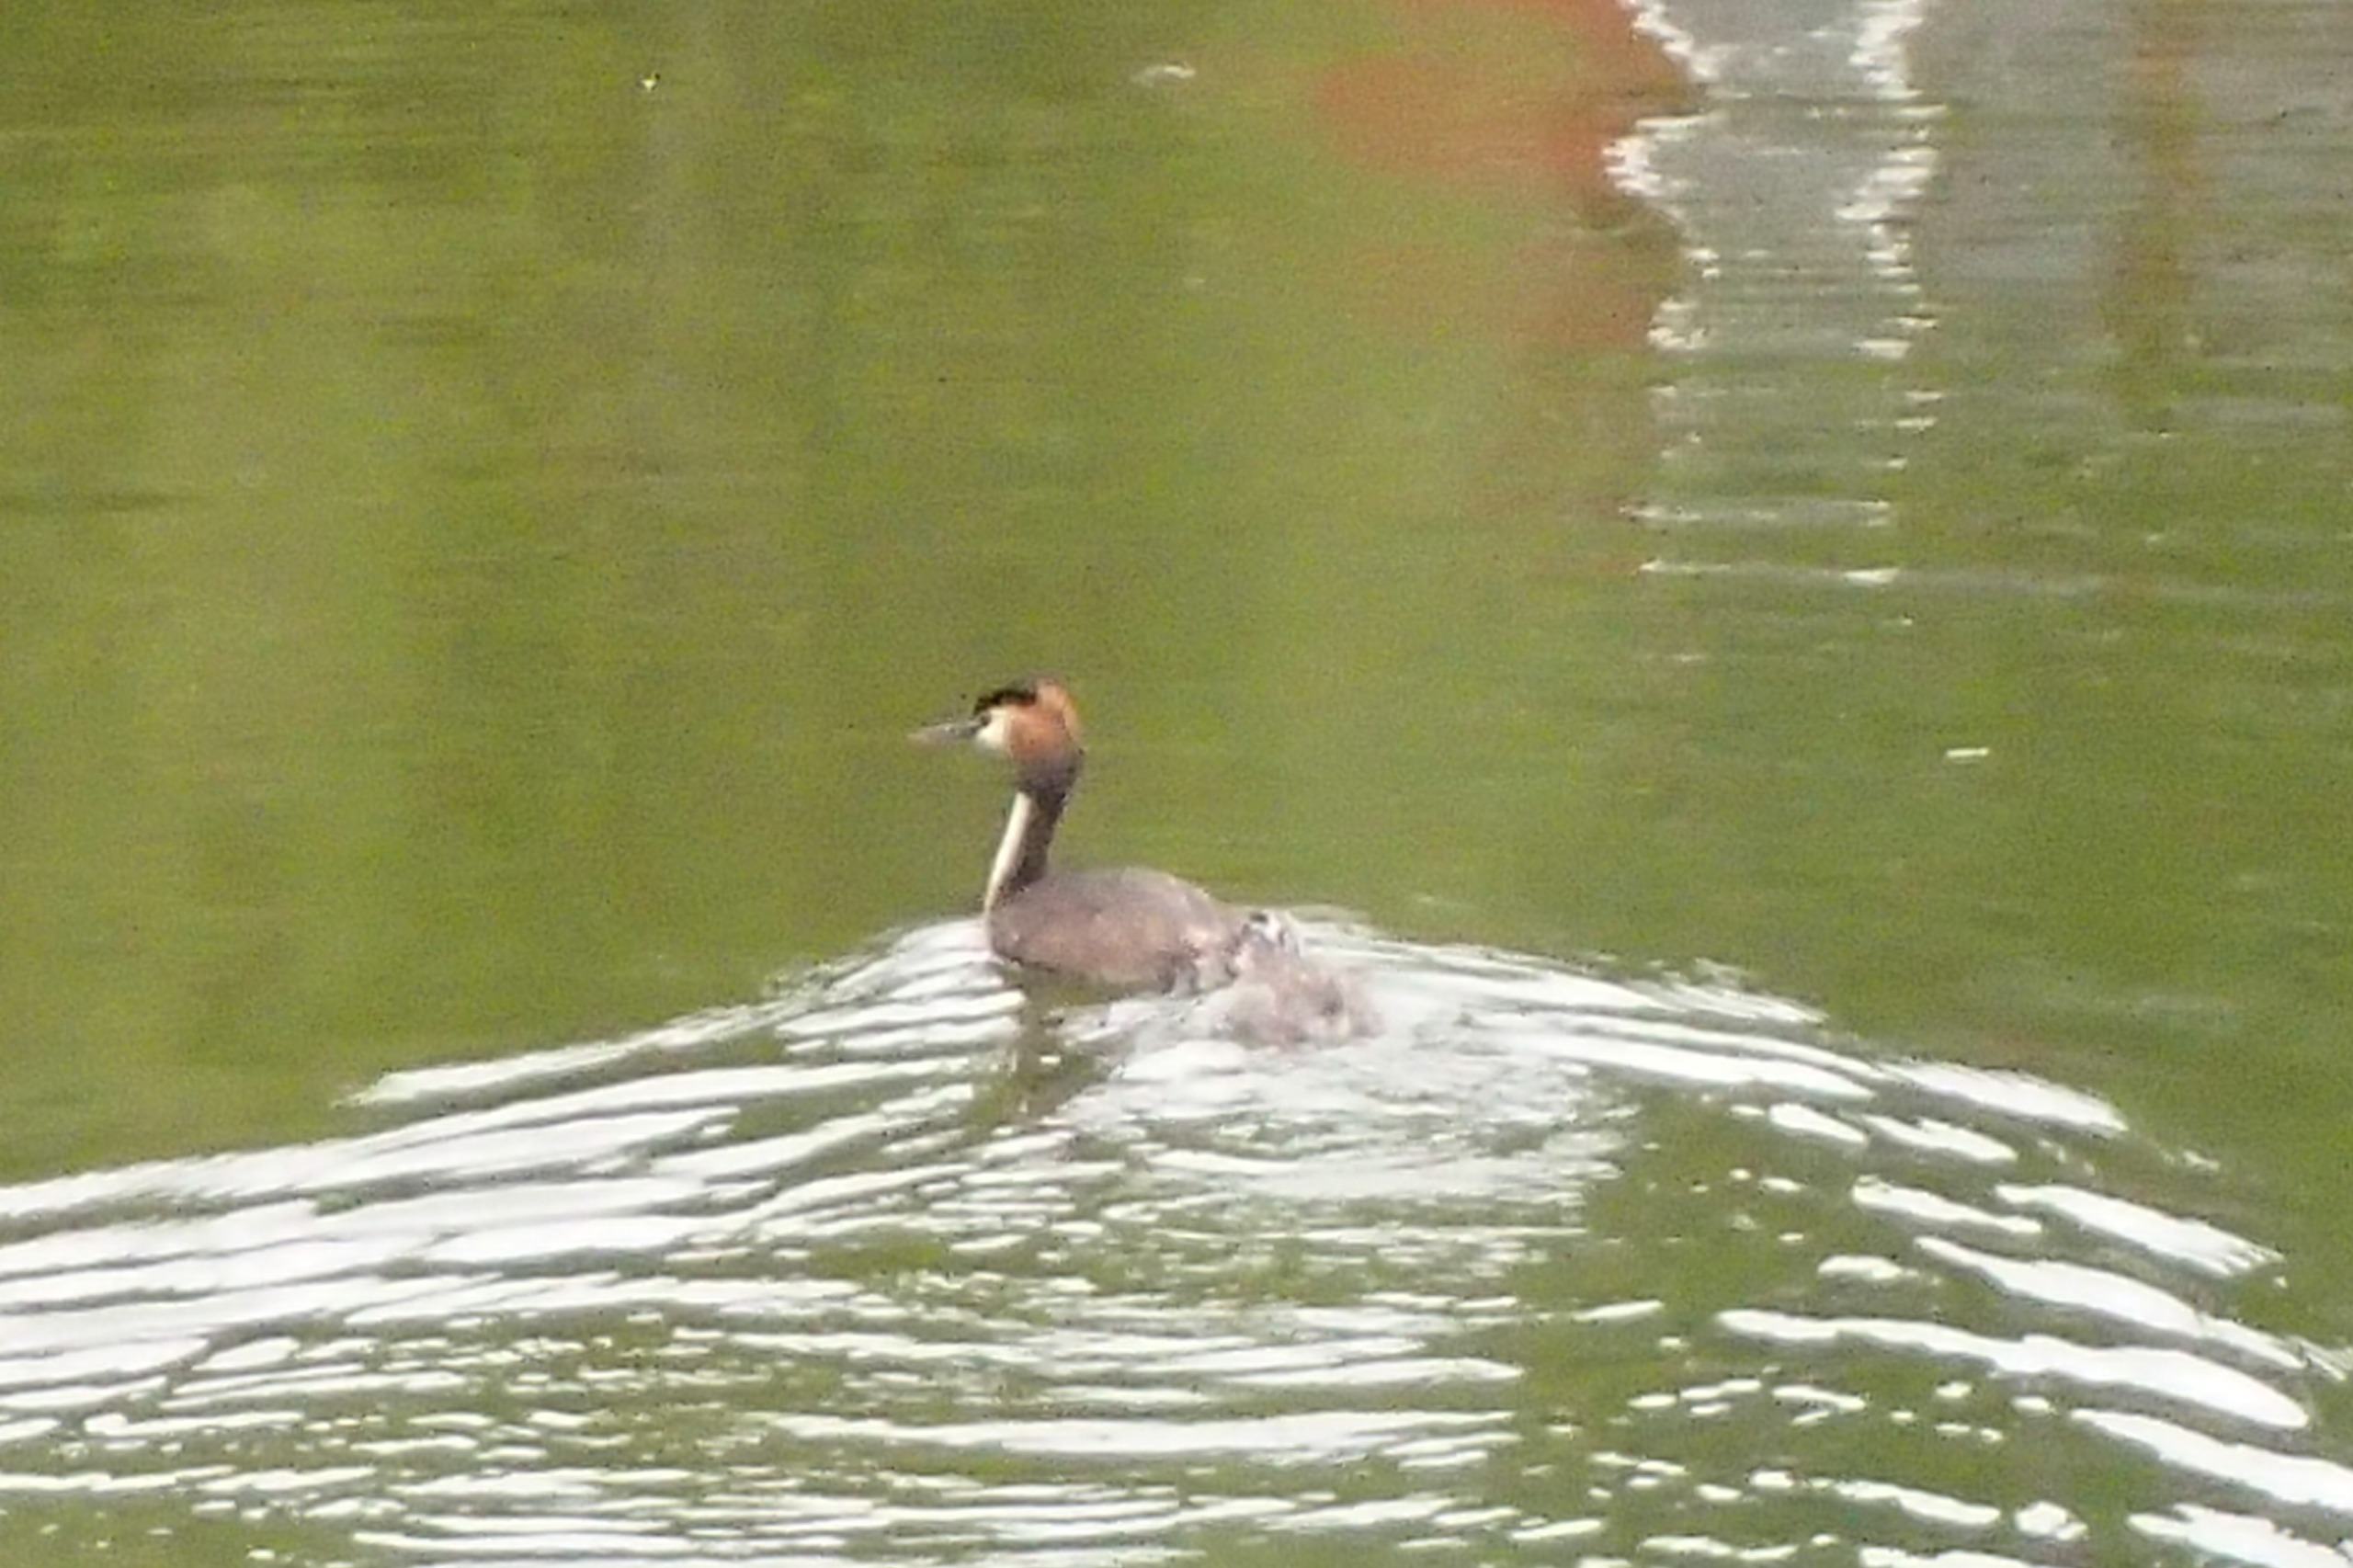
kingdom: Animalia
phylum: Chordata
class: Aves
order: Podicipediformes
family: Podicipedidae
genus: Podiceps
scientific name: Podiceps cristatus
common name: Toppet lappedykker
